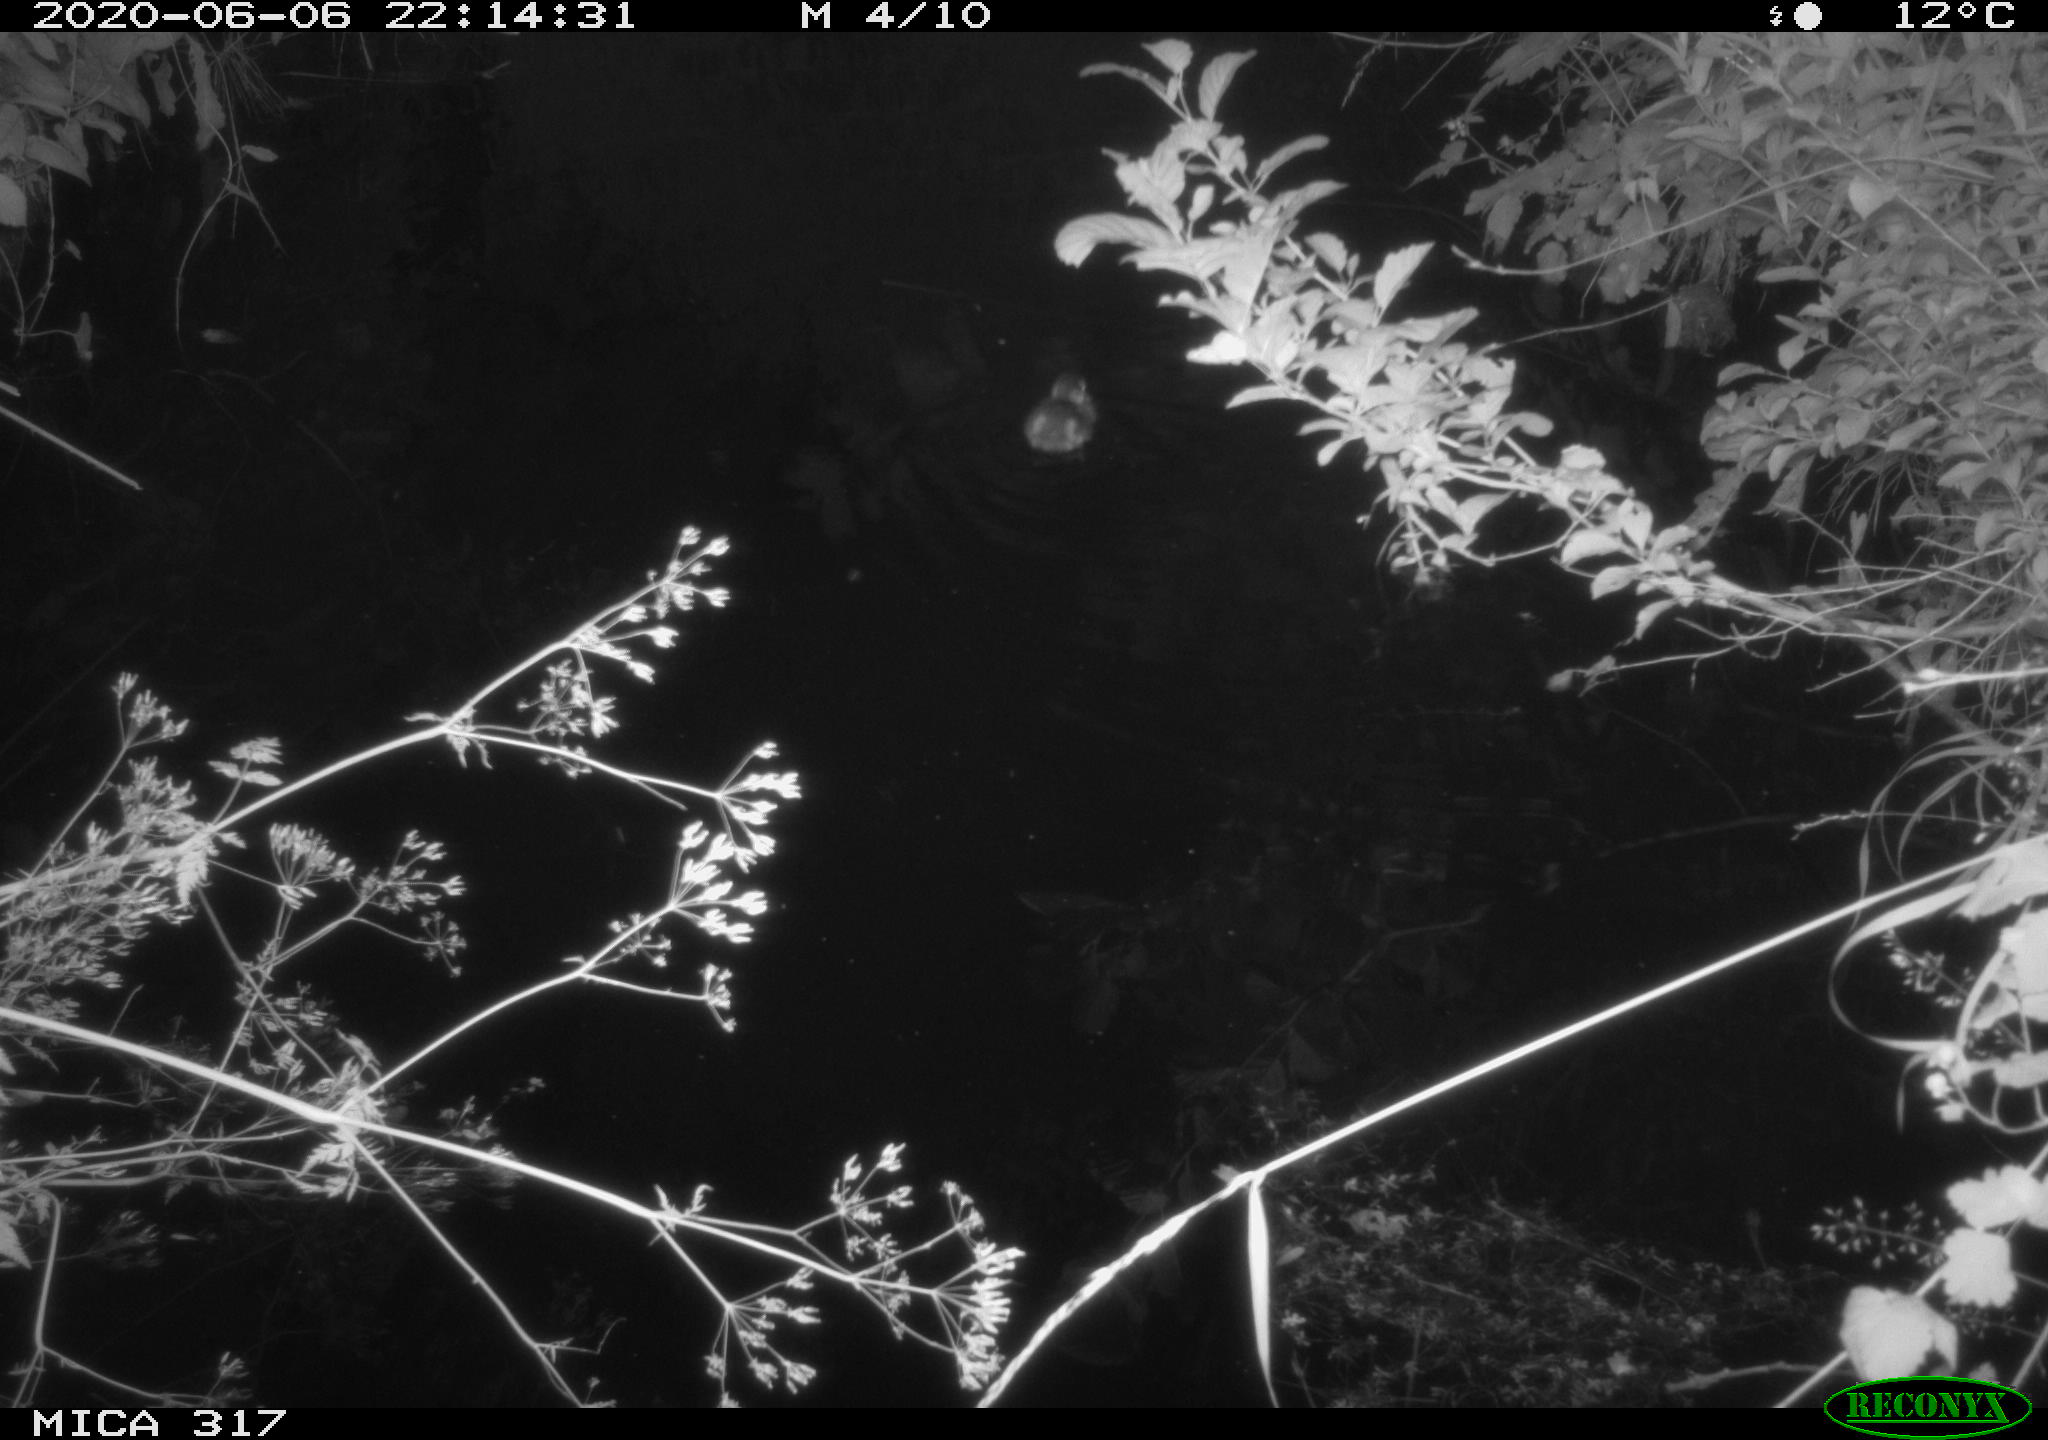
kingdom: Animalia
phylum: Chordata
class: Aves
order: Anseriformes
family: Anatidae
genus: Anas
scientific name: Anas platyrhynchos
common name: Mallard
